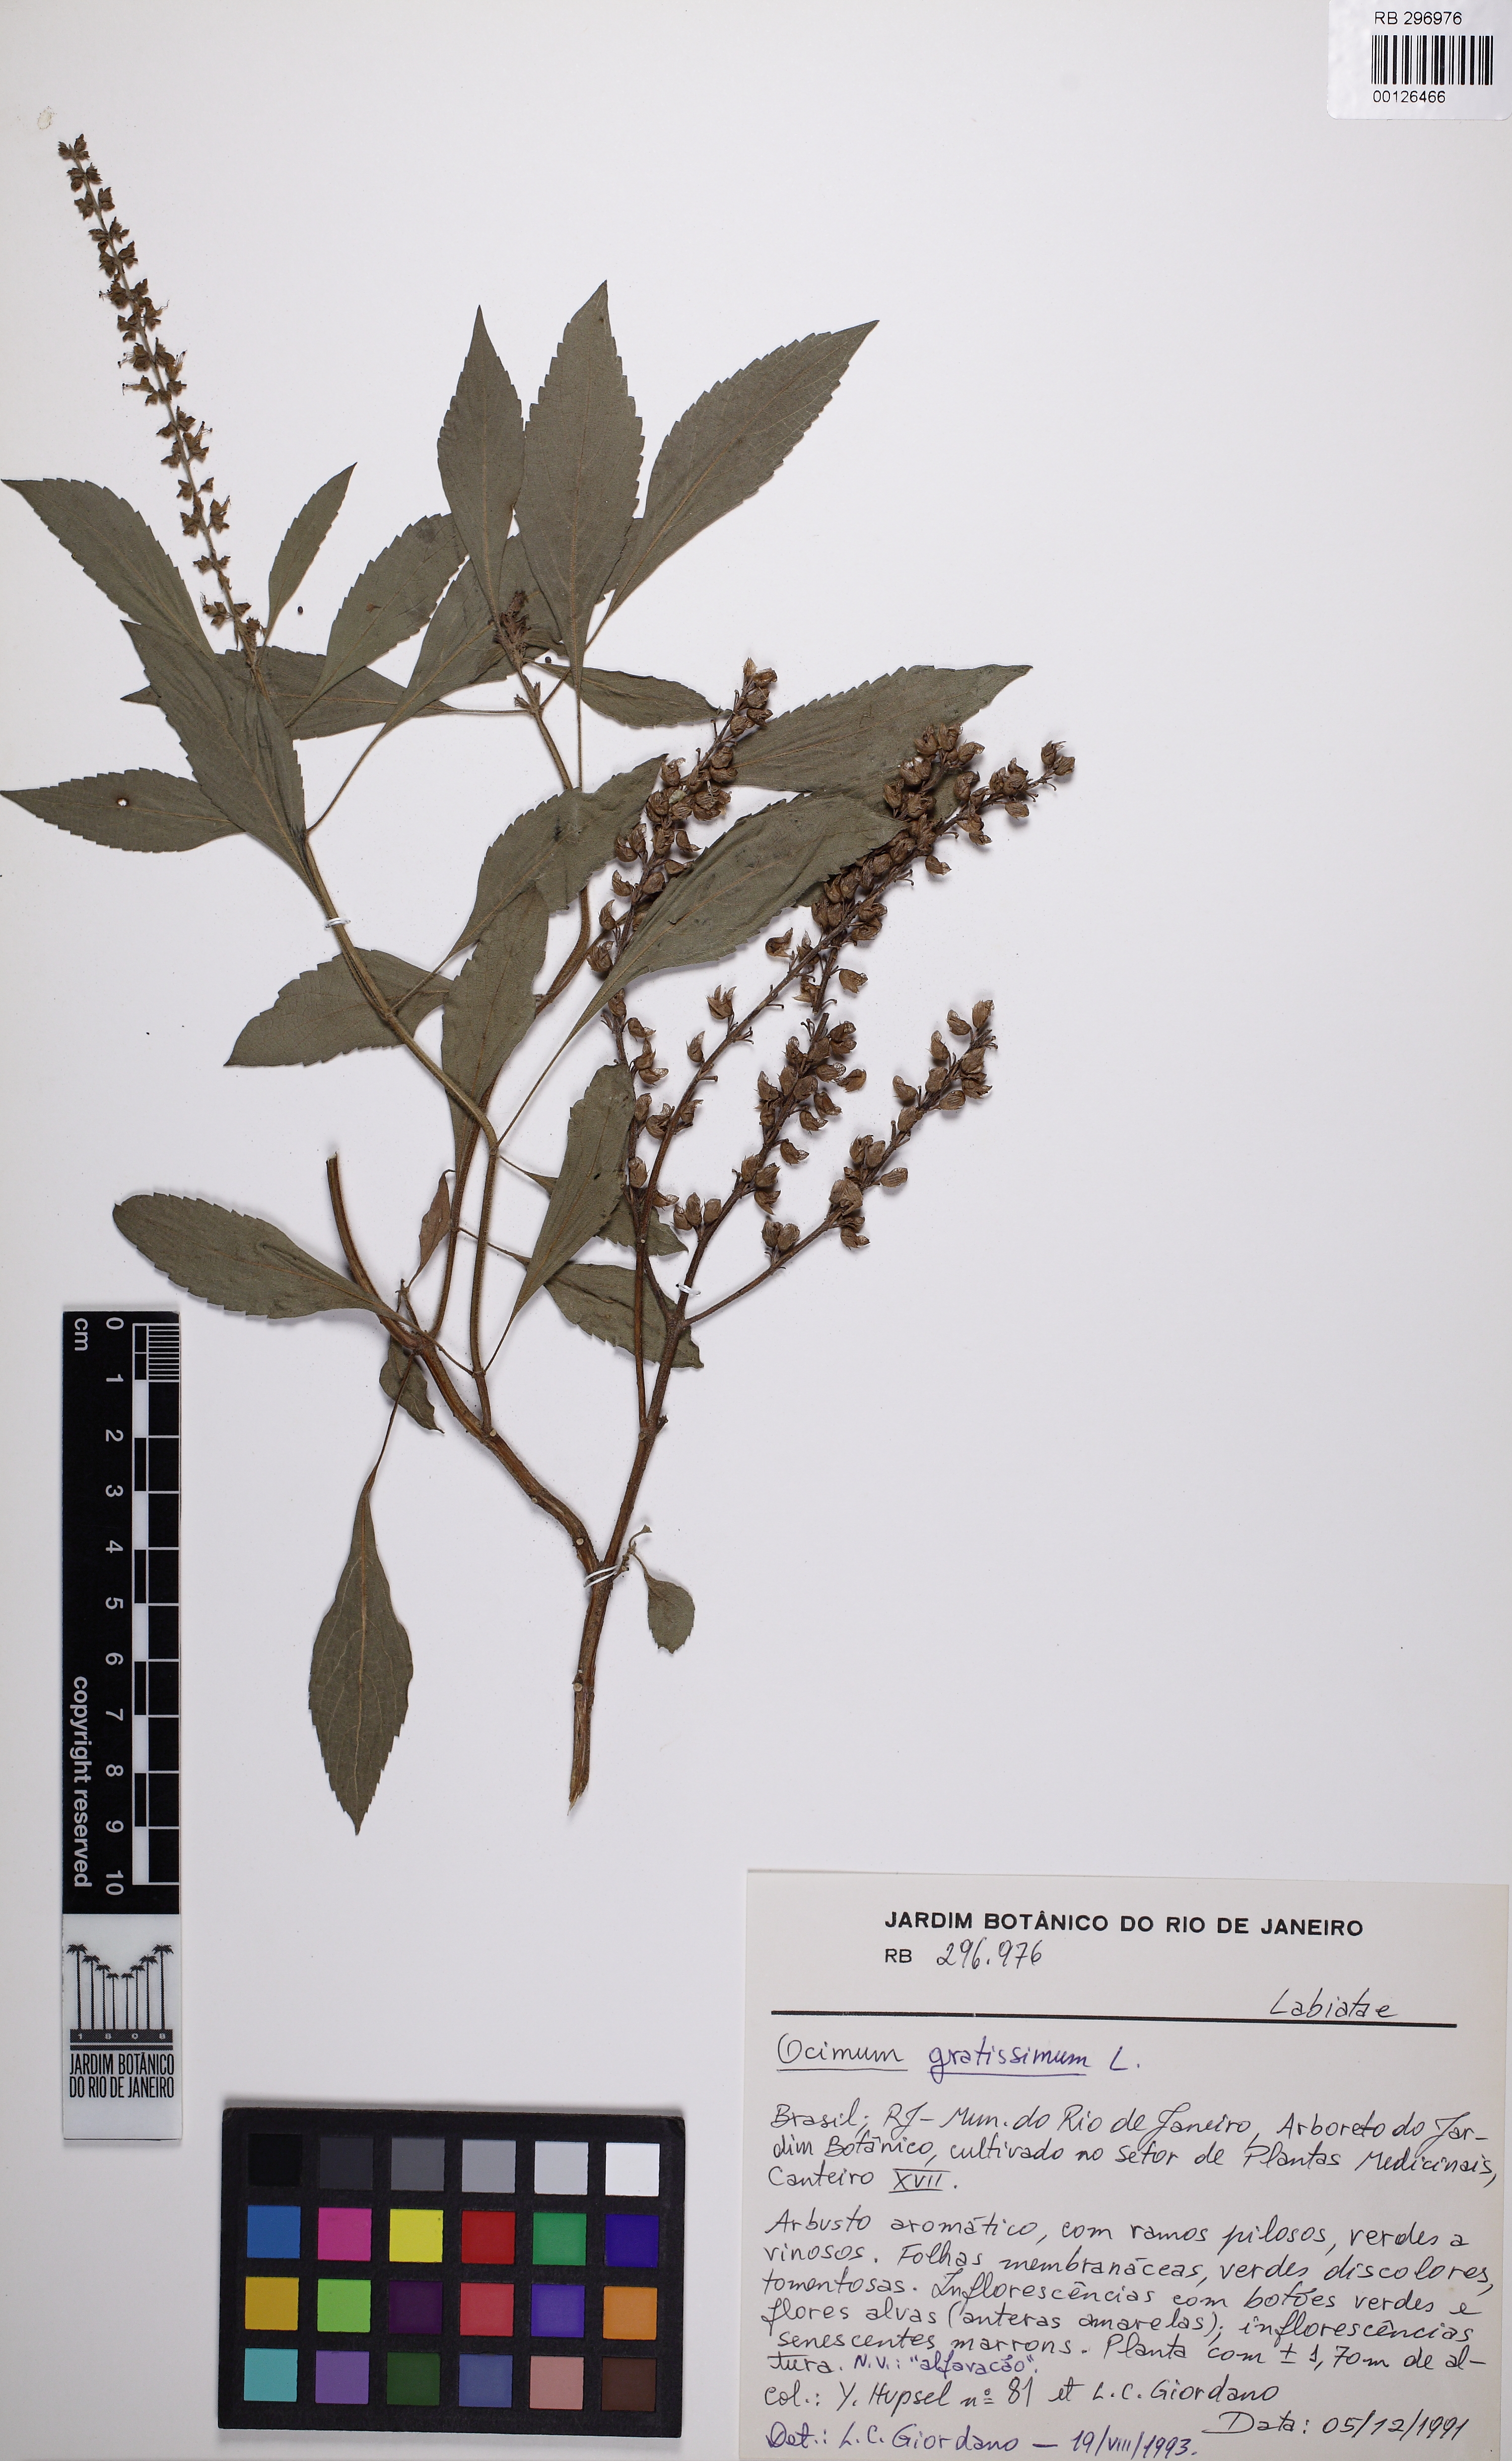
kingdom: Plantae
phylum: Tracheophyta
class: Magnoliopsida
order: Lamiales
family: Lamiaceae
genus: Ocimum
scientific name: Ocimum gratissimum
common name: African basil
